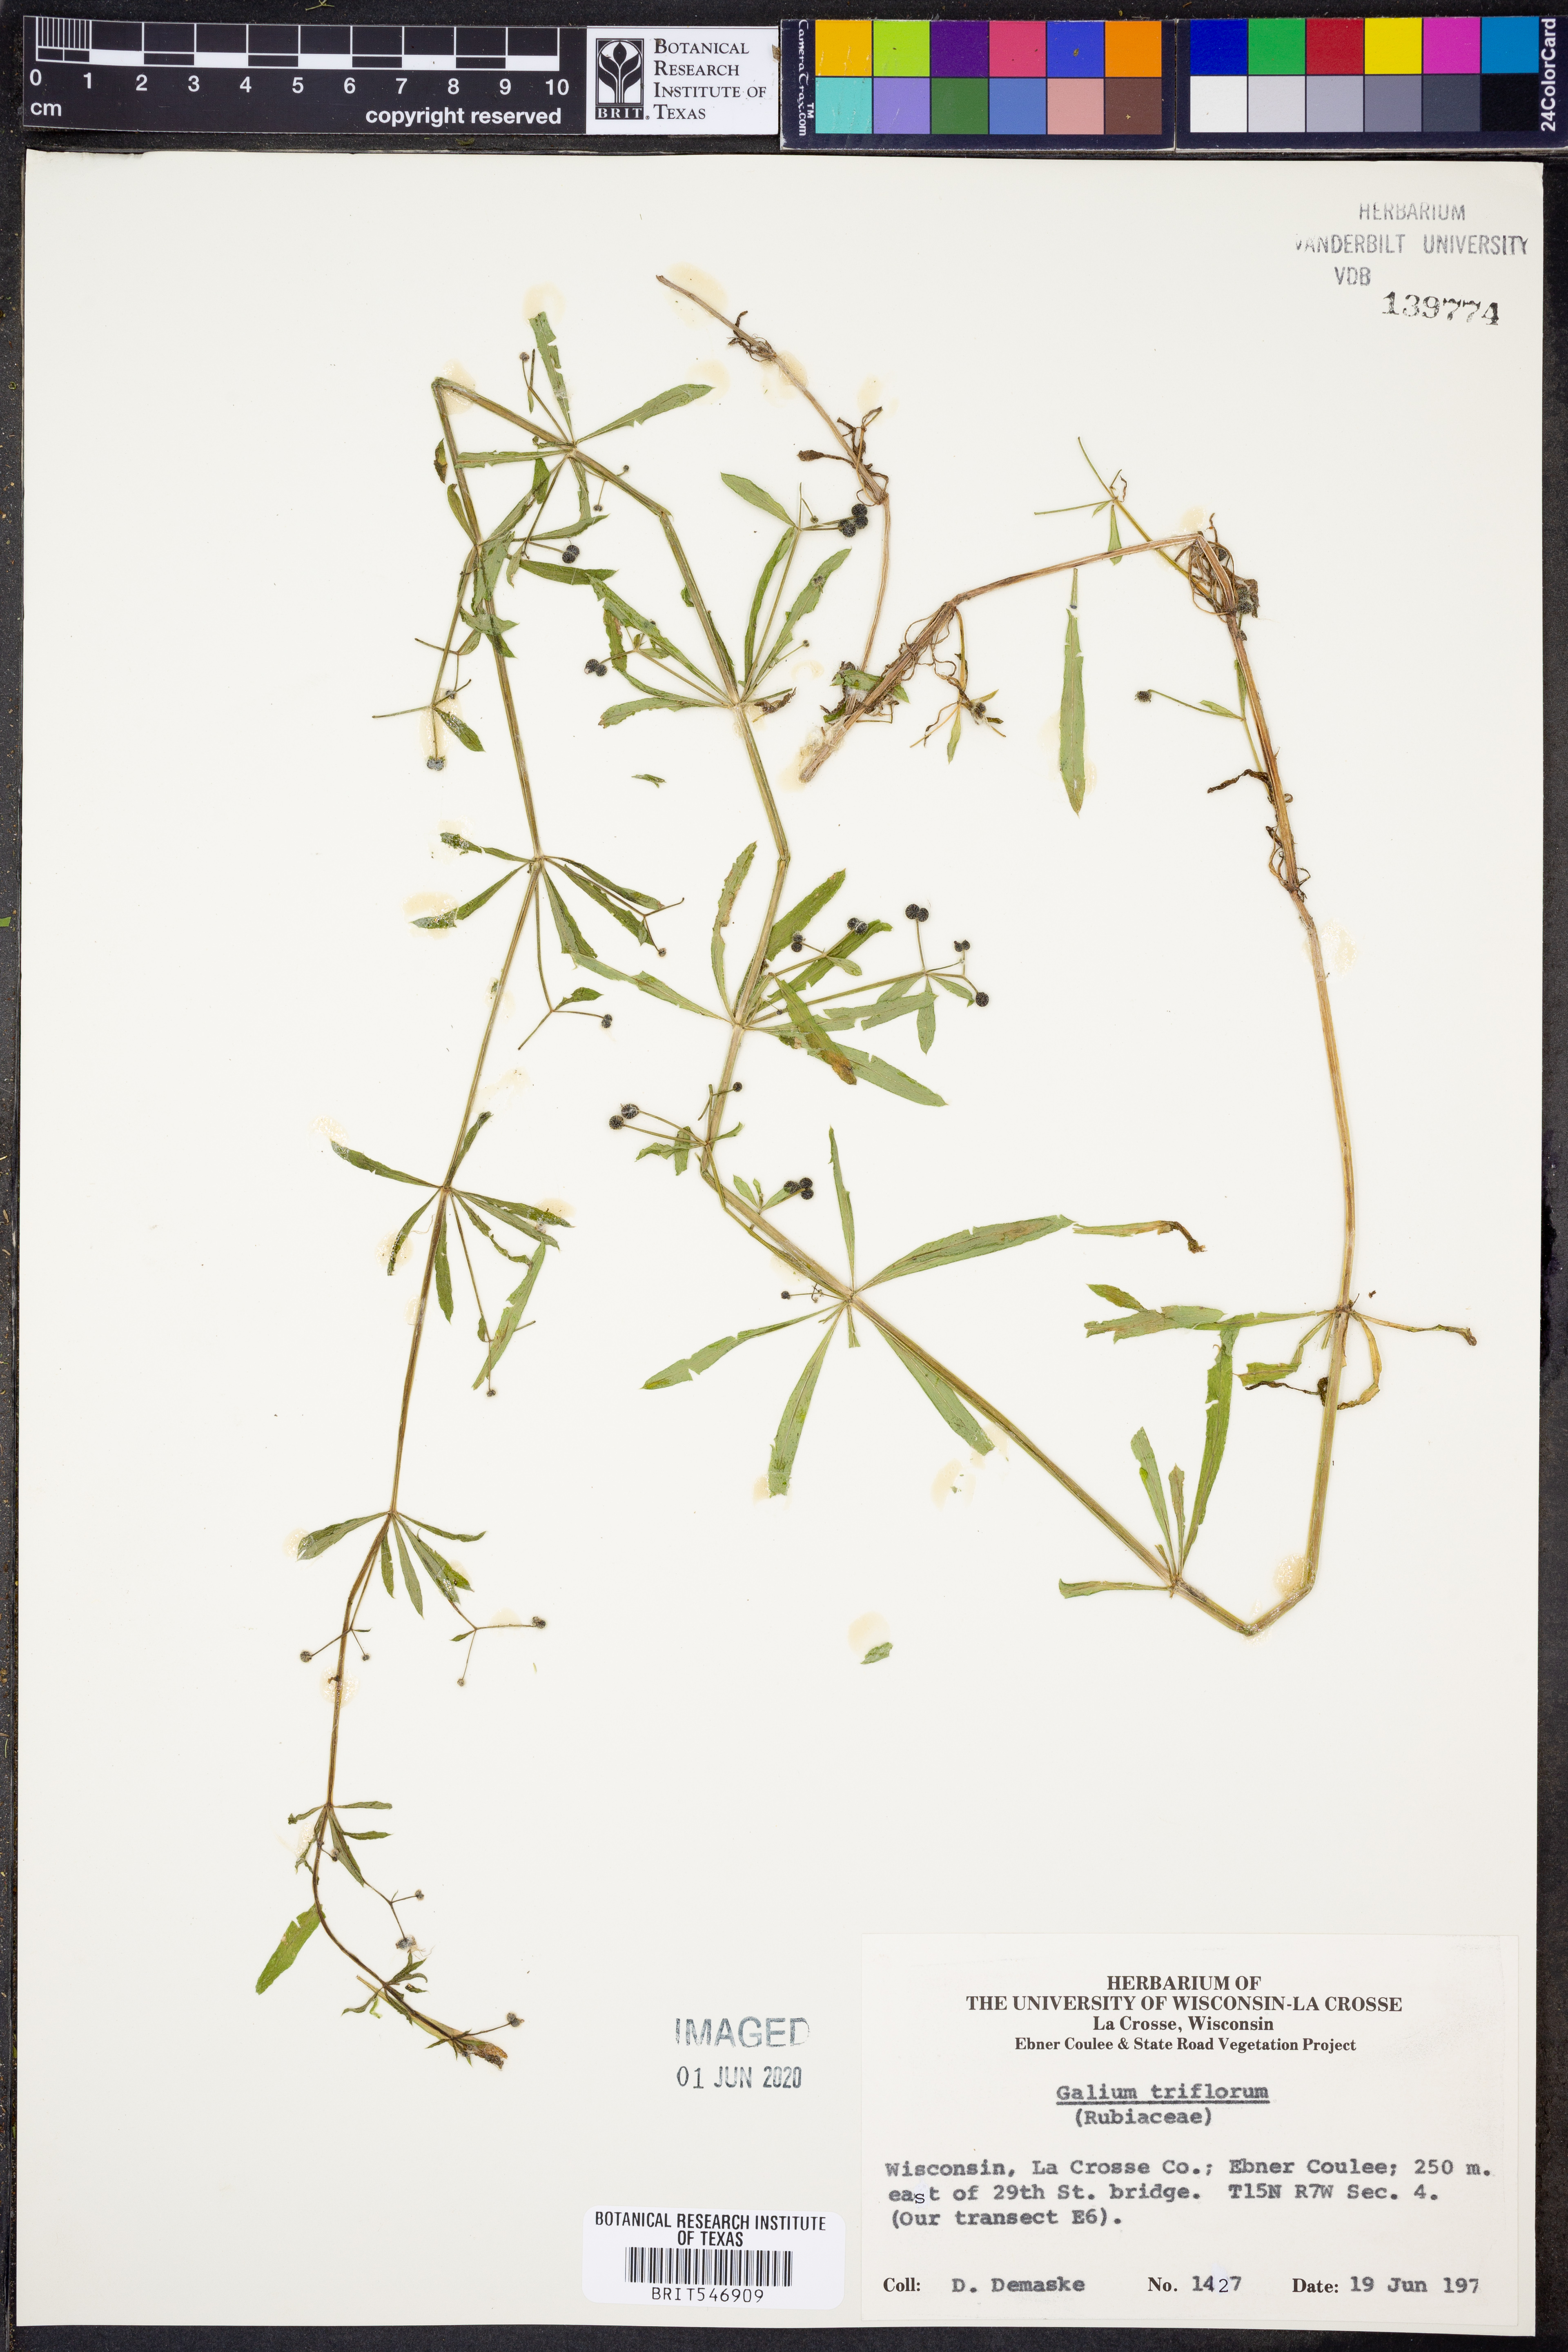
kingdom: Plantae
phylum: Tracheophyta
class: Magnoliopsida
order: Gentianales
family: Rubiaceae
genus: Galium
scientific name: Galium triflorum
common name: Fragrant bedstraw
